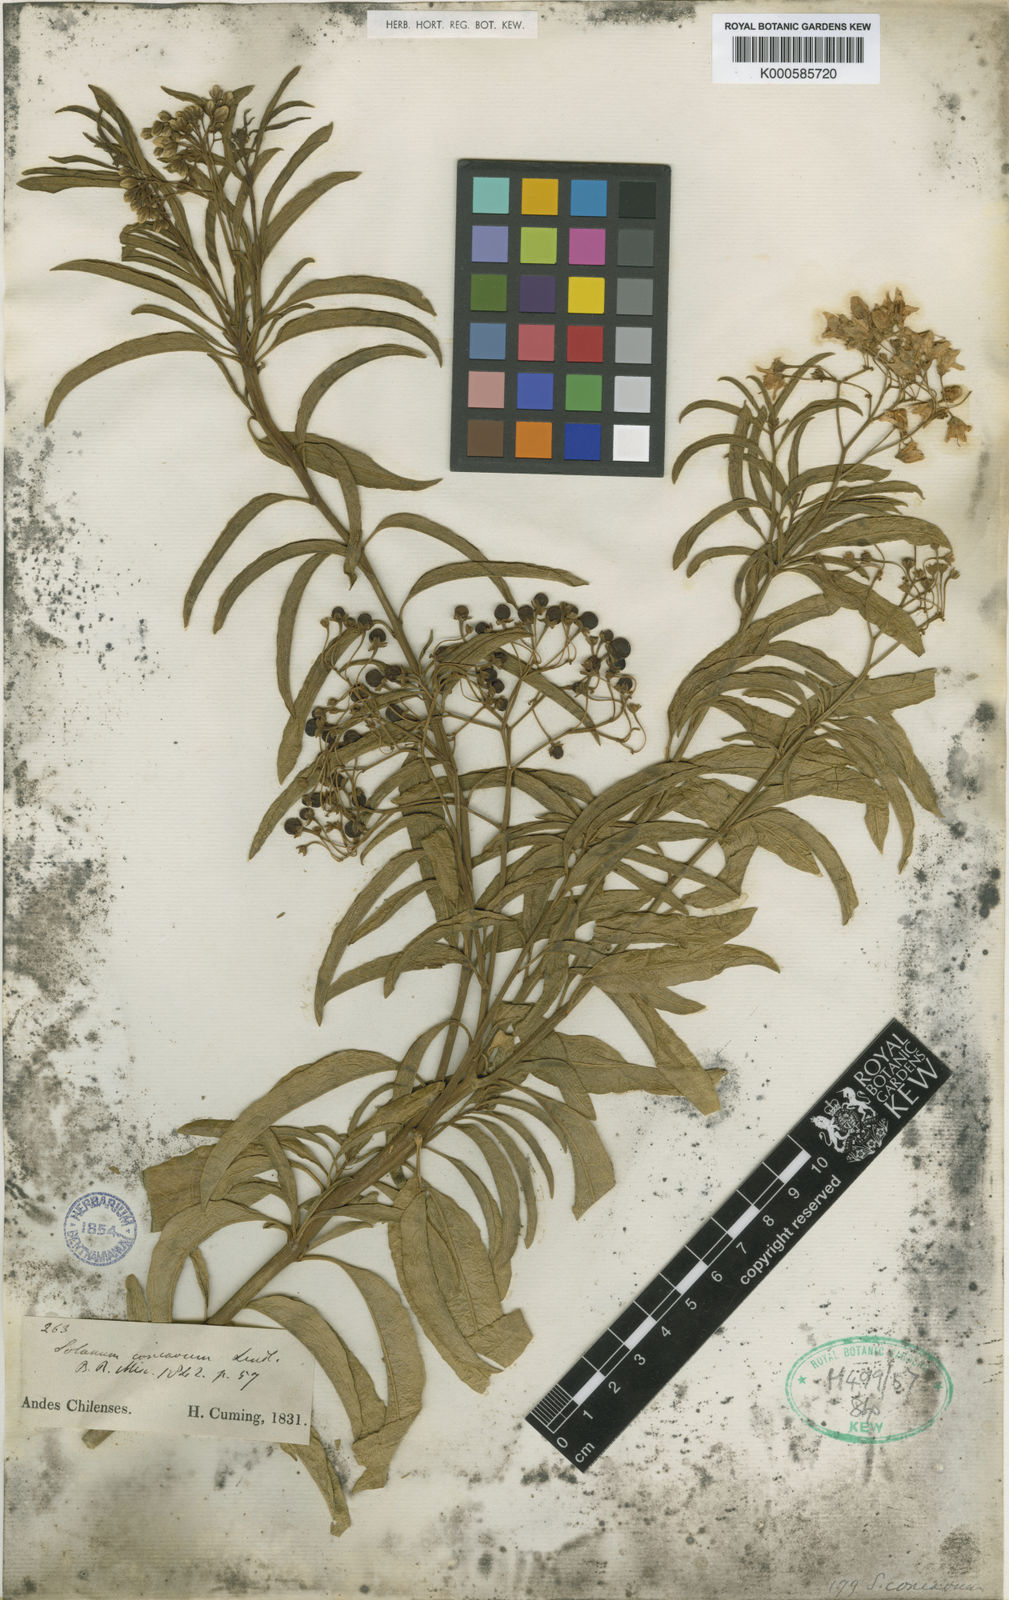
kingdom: Plantae
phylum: Tracheophyta
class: Magnoliopsida
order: Solanales
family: Solanaceae
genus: Solanum
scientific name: Solanum crispum
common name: Chilean nightshade
